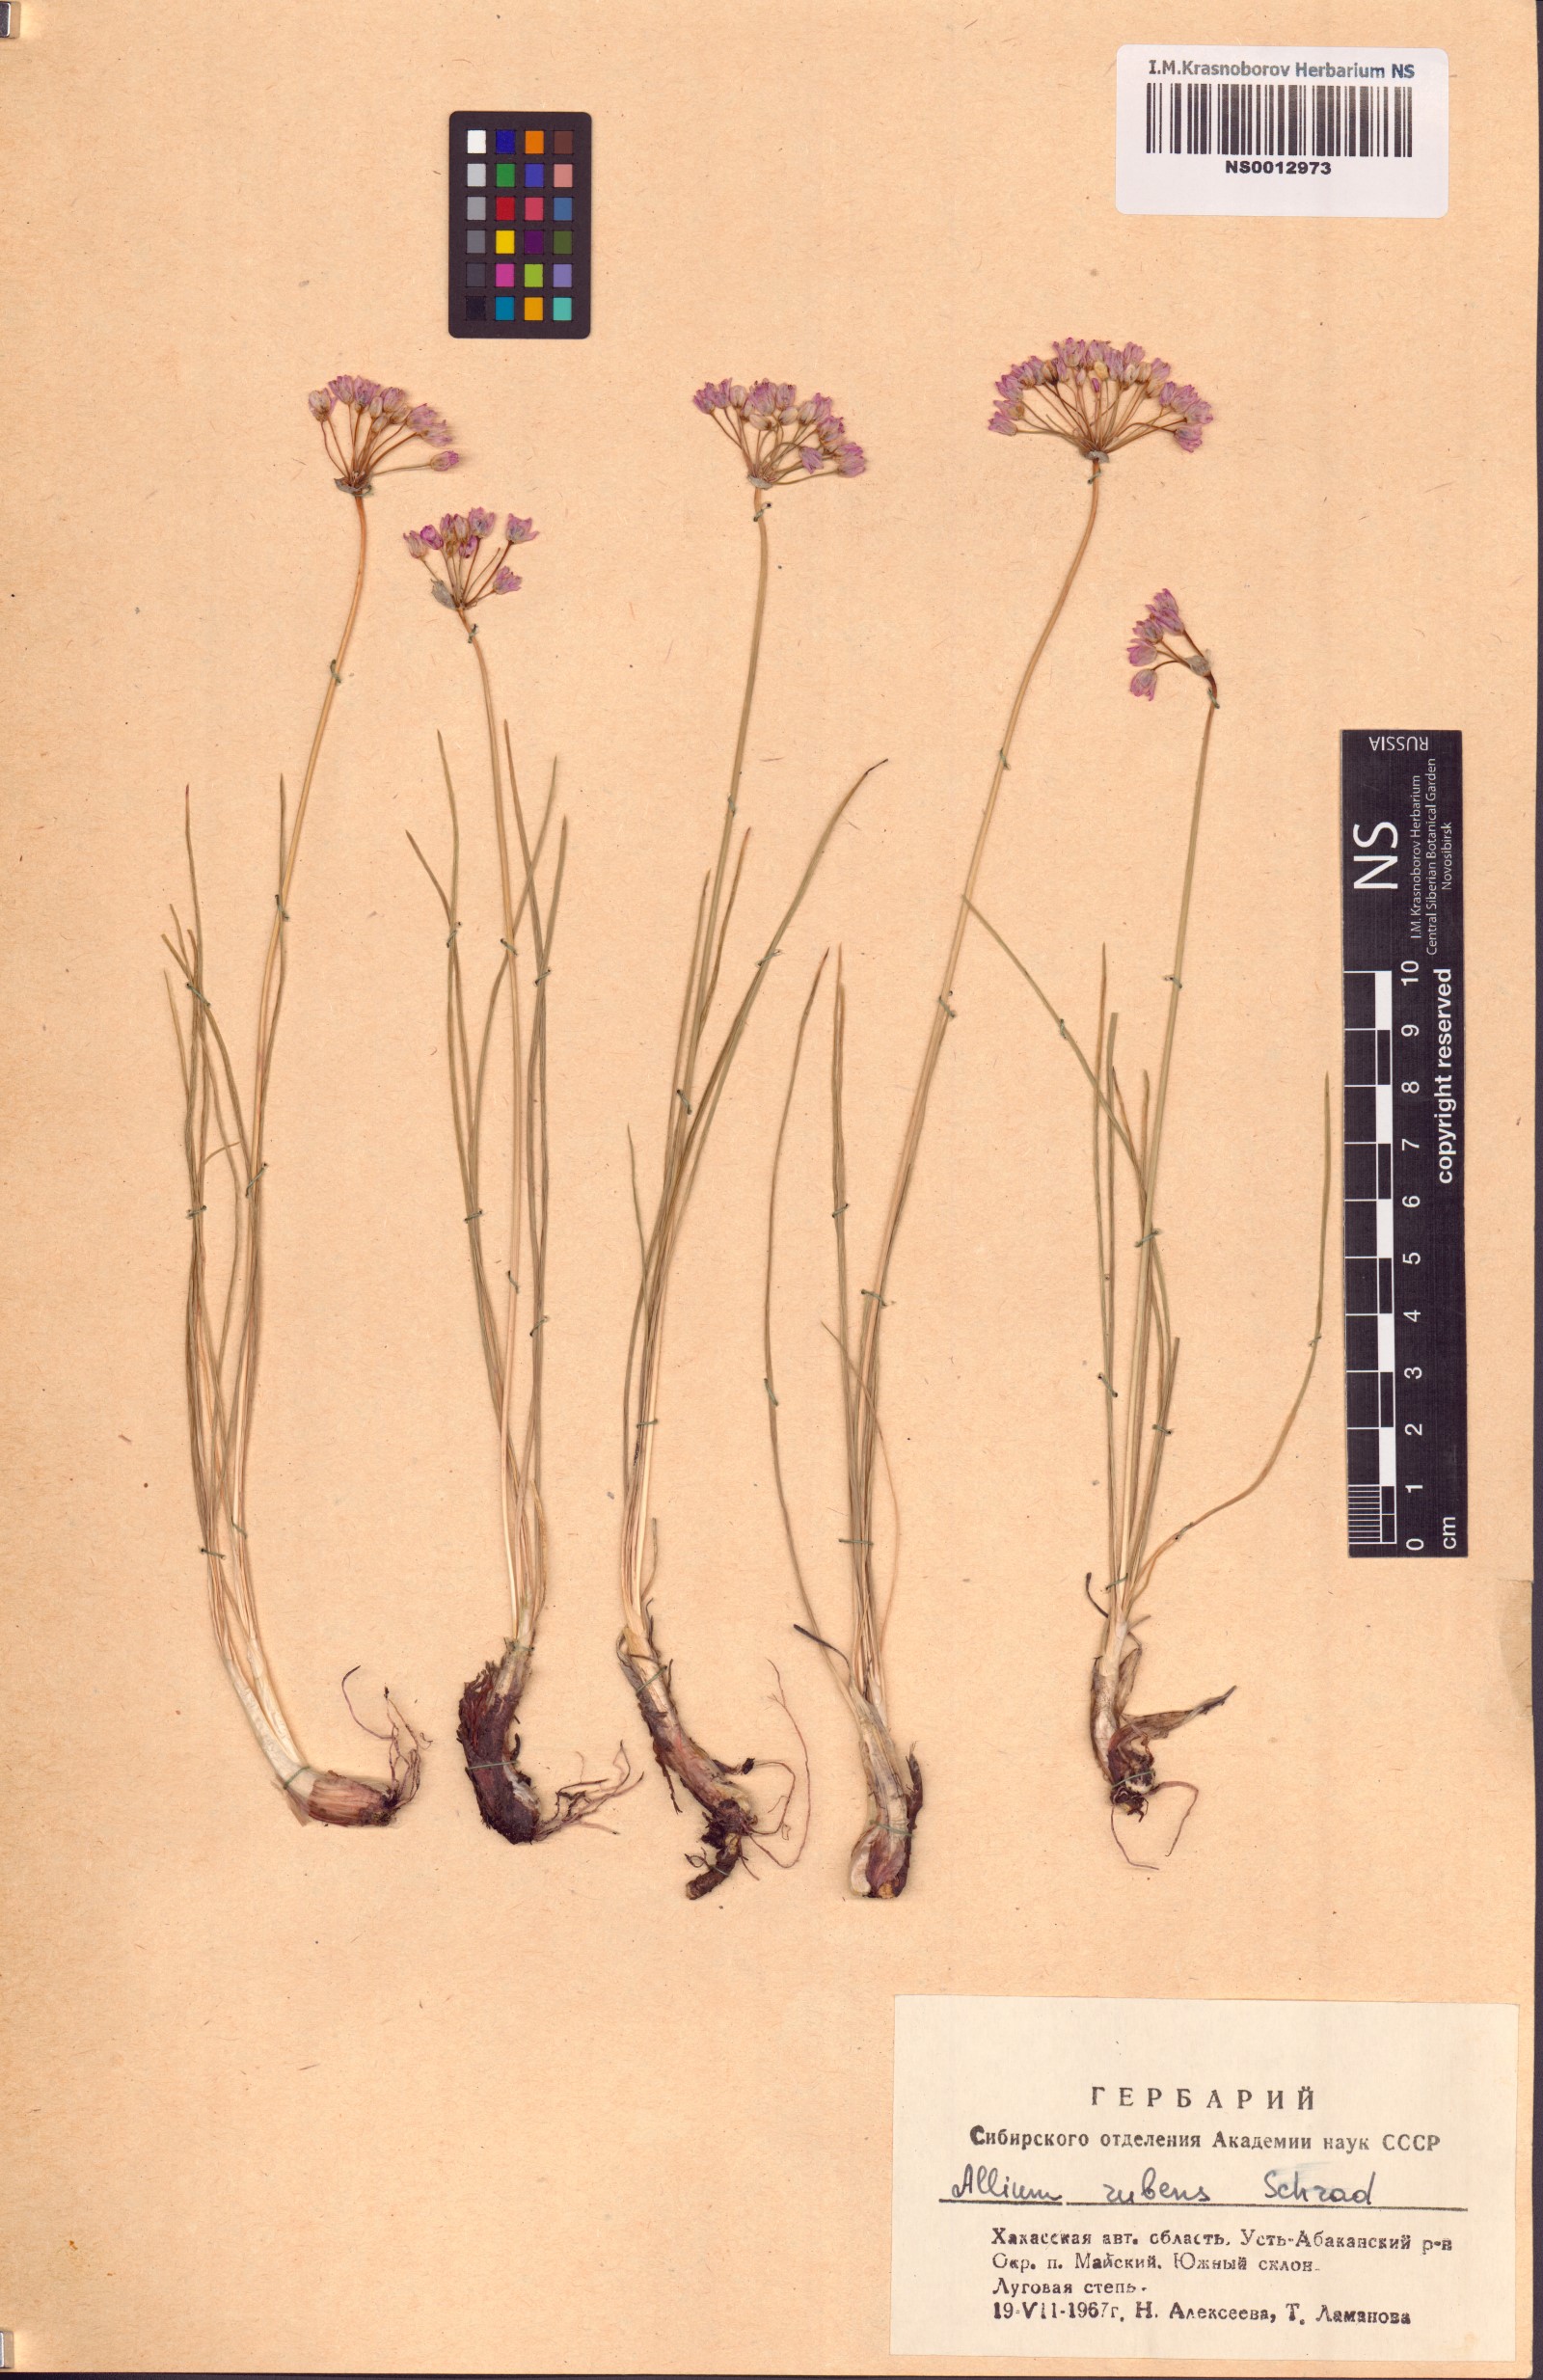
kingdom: Plantae
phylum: Tracheophyta
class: Liliopsida
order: Asparagales
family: Amaryllidaceae
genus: Allium
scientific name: Allium rubens
